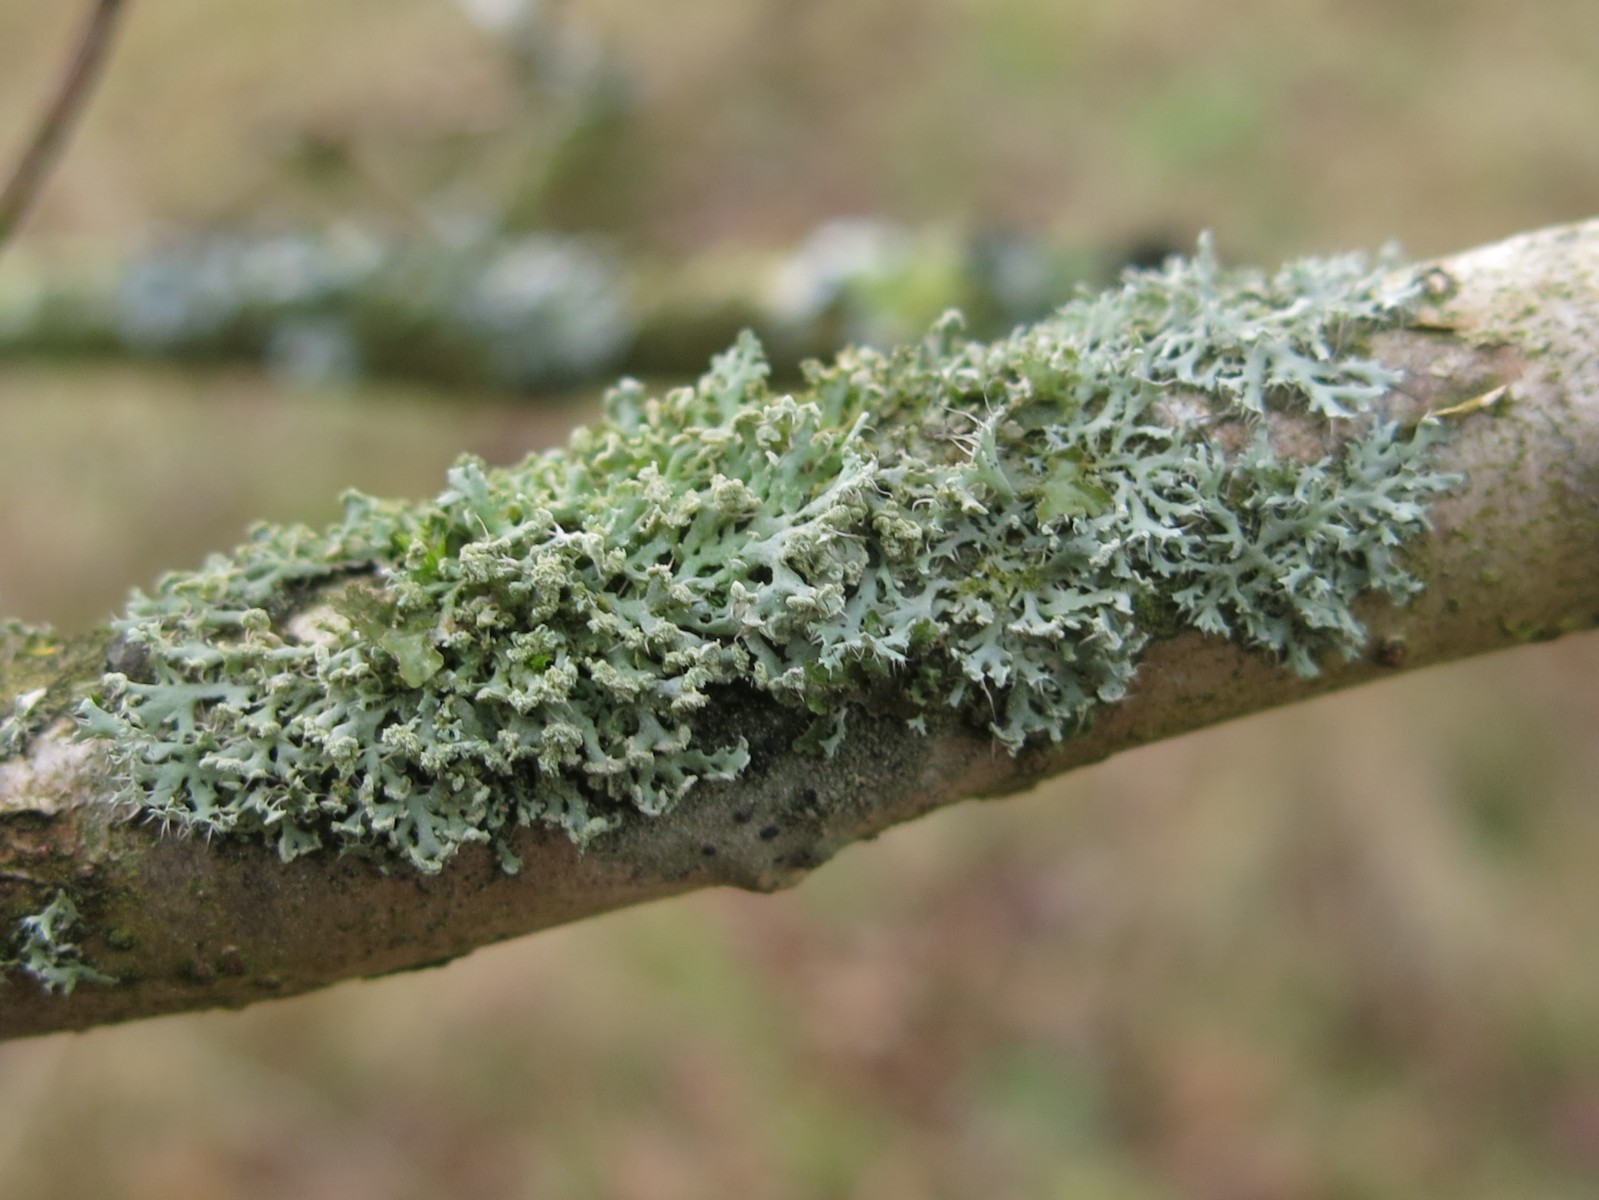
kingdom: Fungi
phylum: Ascomycota
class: Lecanoromycetes
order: Caliciales
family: Physciaceae
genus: Physcia
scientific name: Physcia tenella
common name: spæd rosetlav
